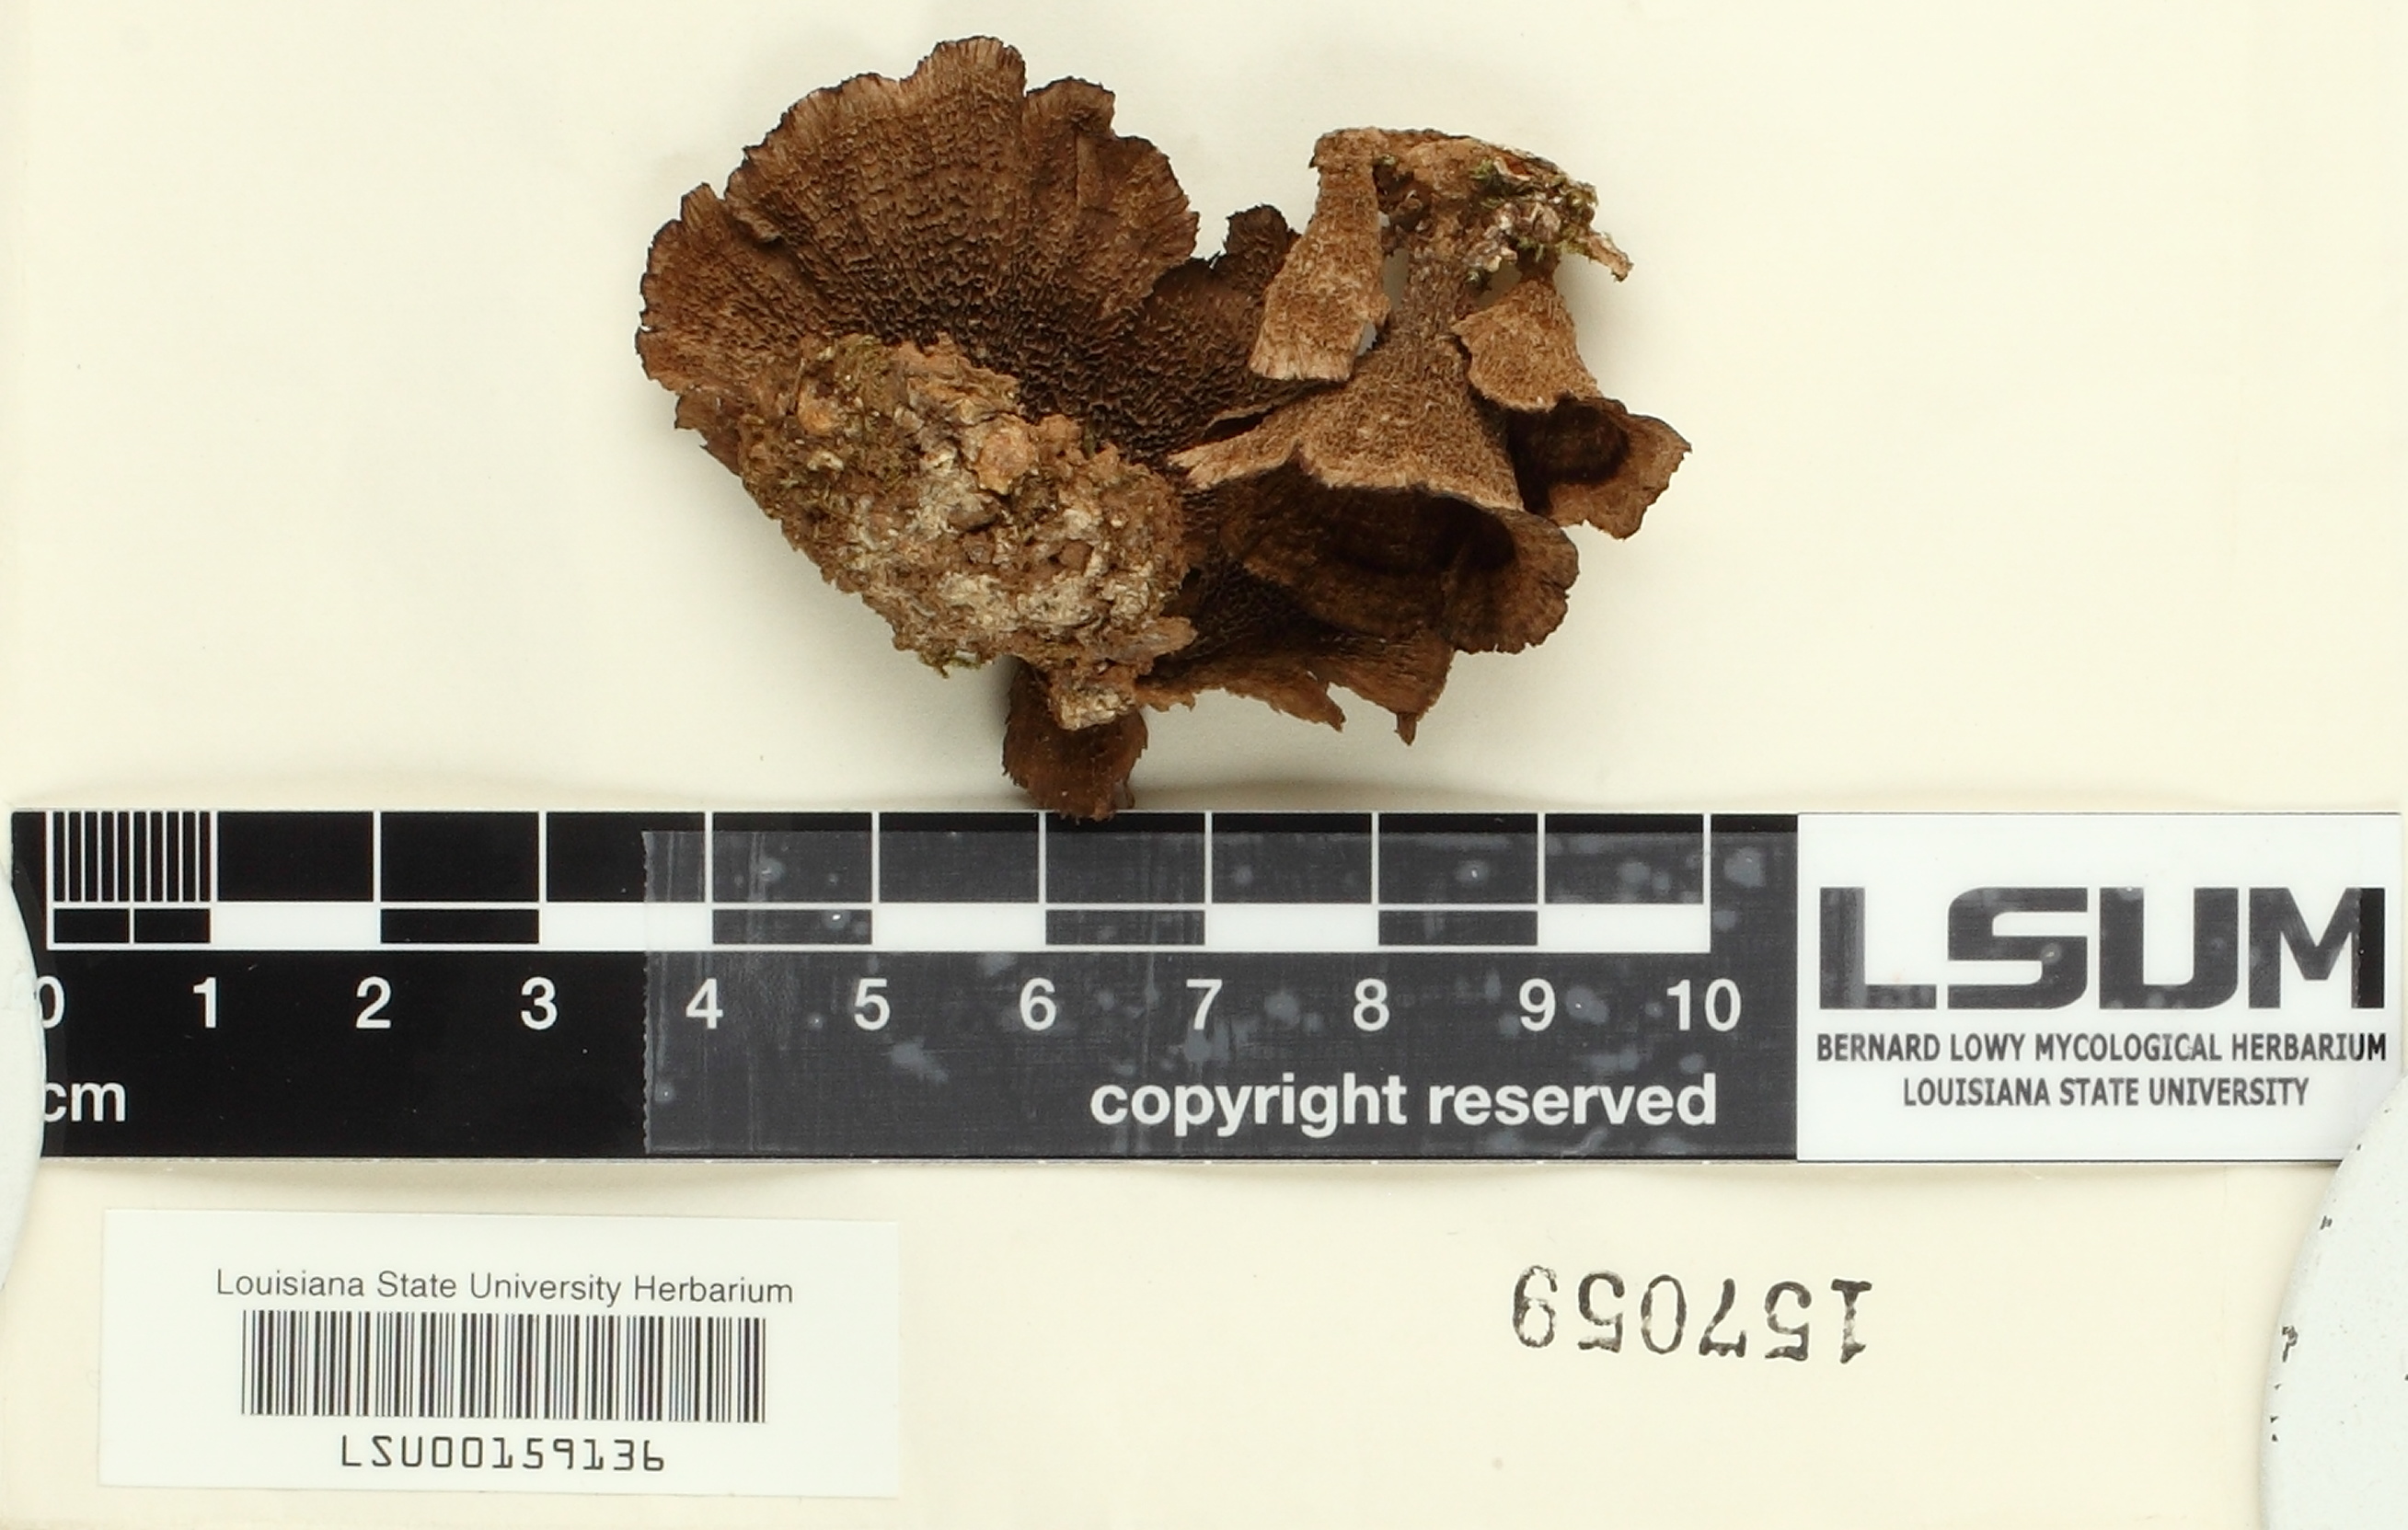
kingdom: Fungi
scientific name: Fungi
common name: Fungi
